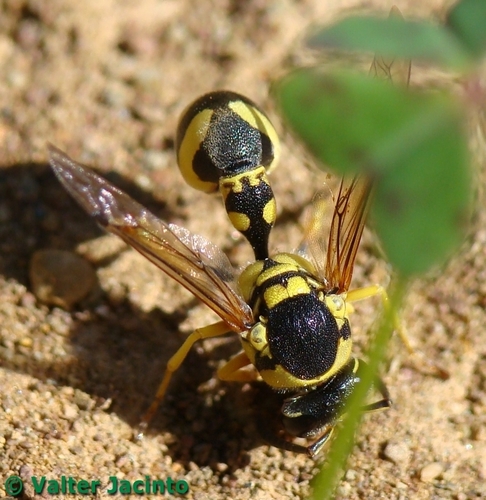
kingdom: Animalia
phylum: Arthropoda
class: Insecta
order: Hymenoptera
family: Vespidae
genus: Eumenes
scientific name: Eumenes dubius
